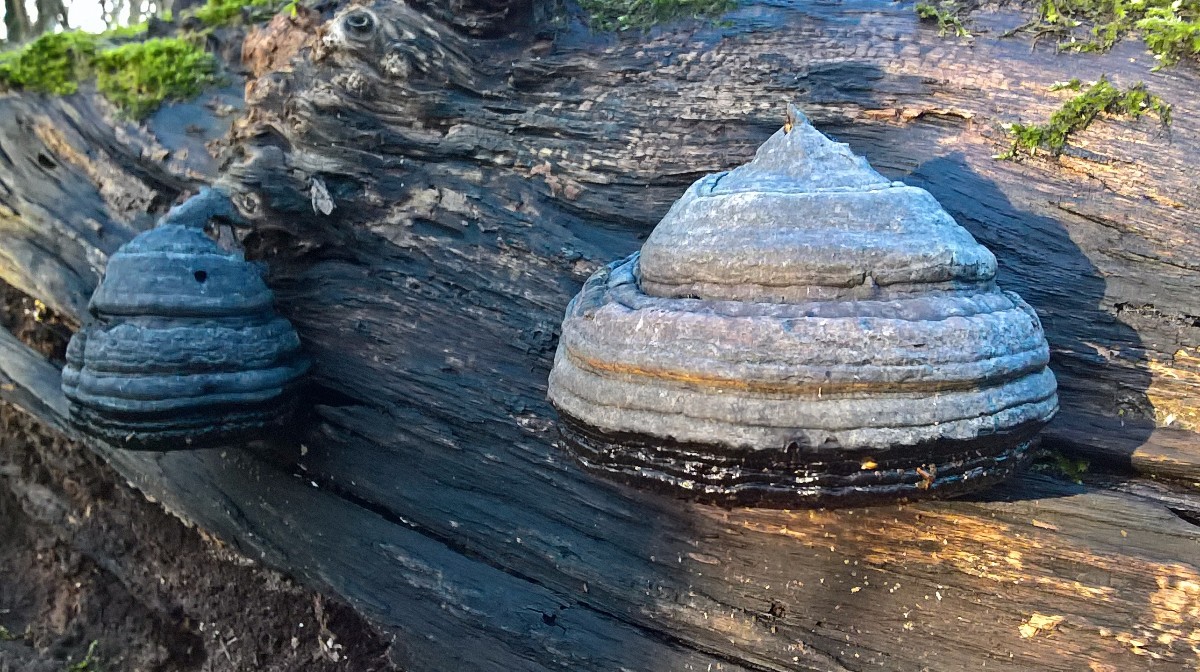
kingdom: Fungi
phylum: Basidiomycota
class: Agaricomycetes
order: Polyporales
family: Polyporaceae
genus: Fomes
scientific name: Fomes fomentarius
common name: tøndersvamp
